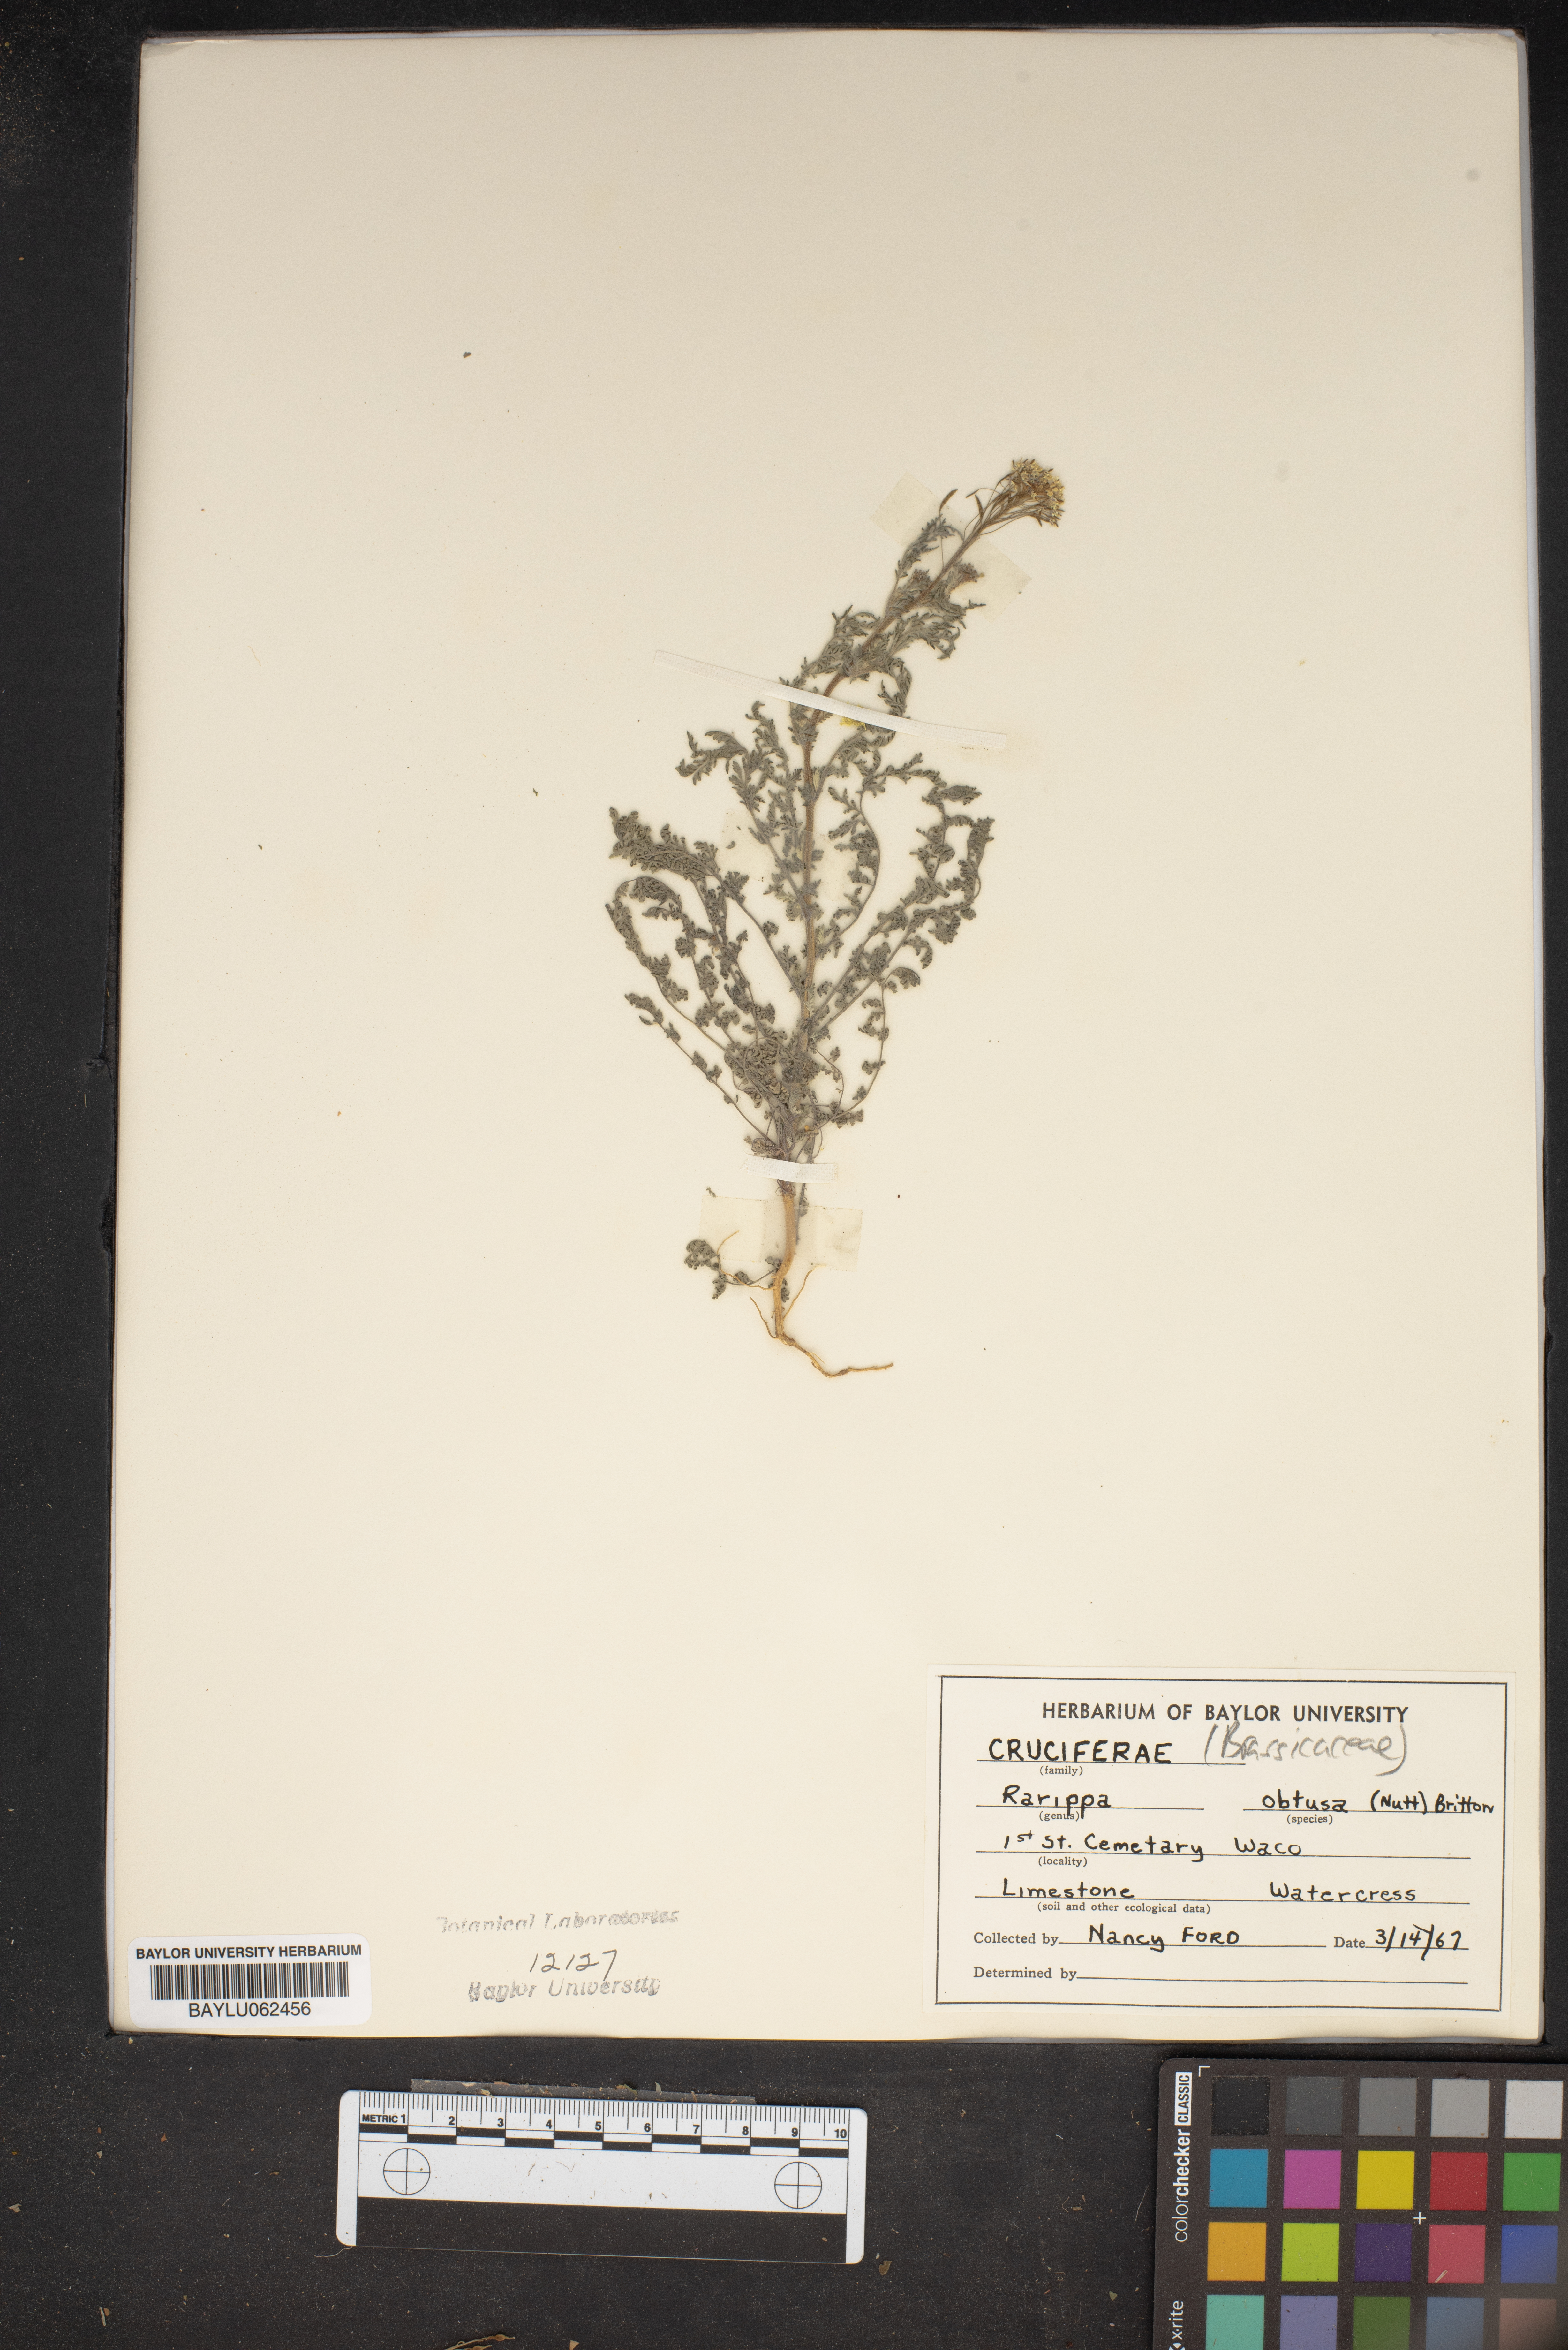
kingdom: Plantae
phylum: Tracheophyta
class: Magnoliopsida
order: Brassicales
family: Brassicaceae
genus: Rorippa
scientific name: Rorippa teres
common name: Southern marsh yellowcress
